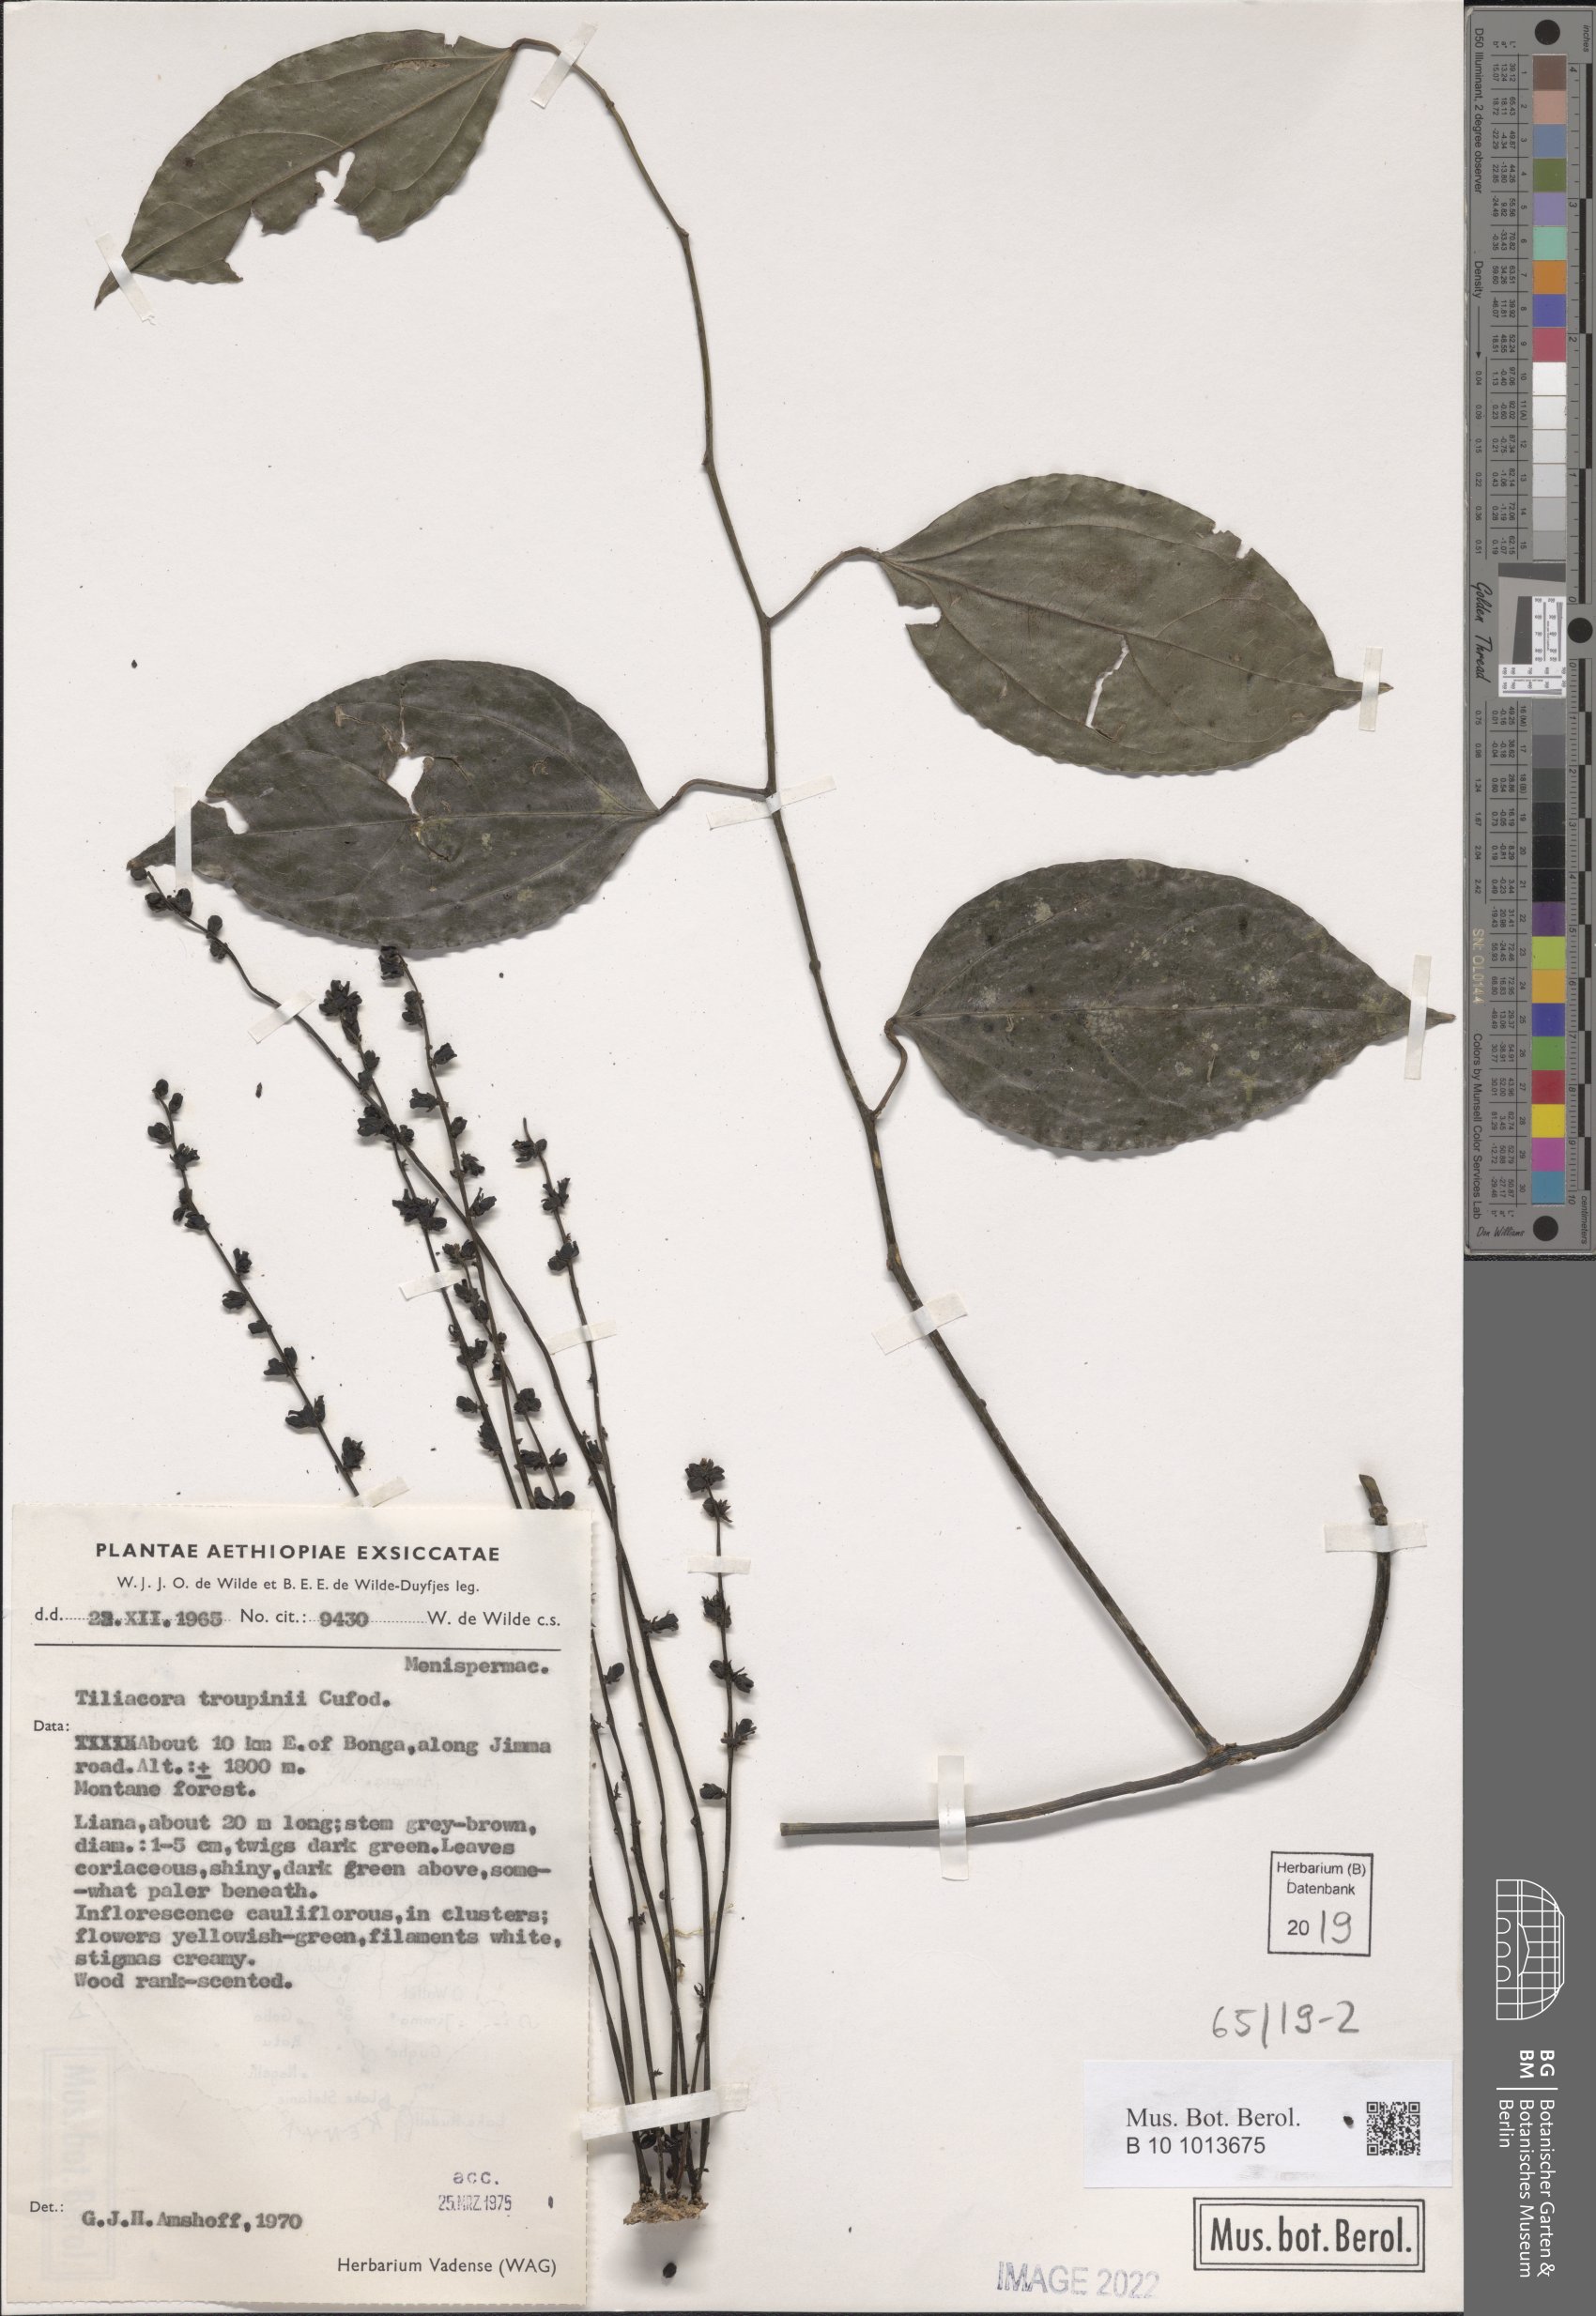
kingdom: Plantae
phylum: Tracheophyta
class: Magnoliopsida
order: Ranunculales
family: Menispermaceae
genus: Tiliacora
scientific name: Tiliacora funifera
